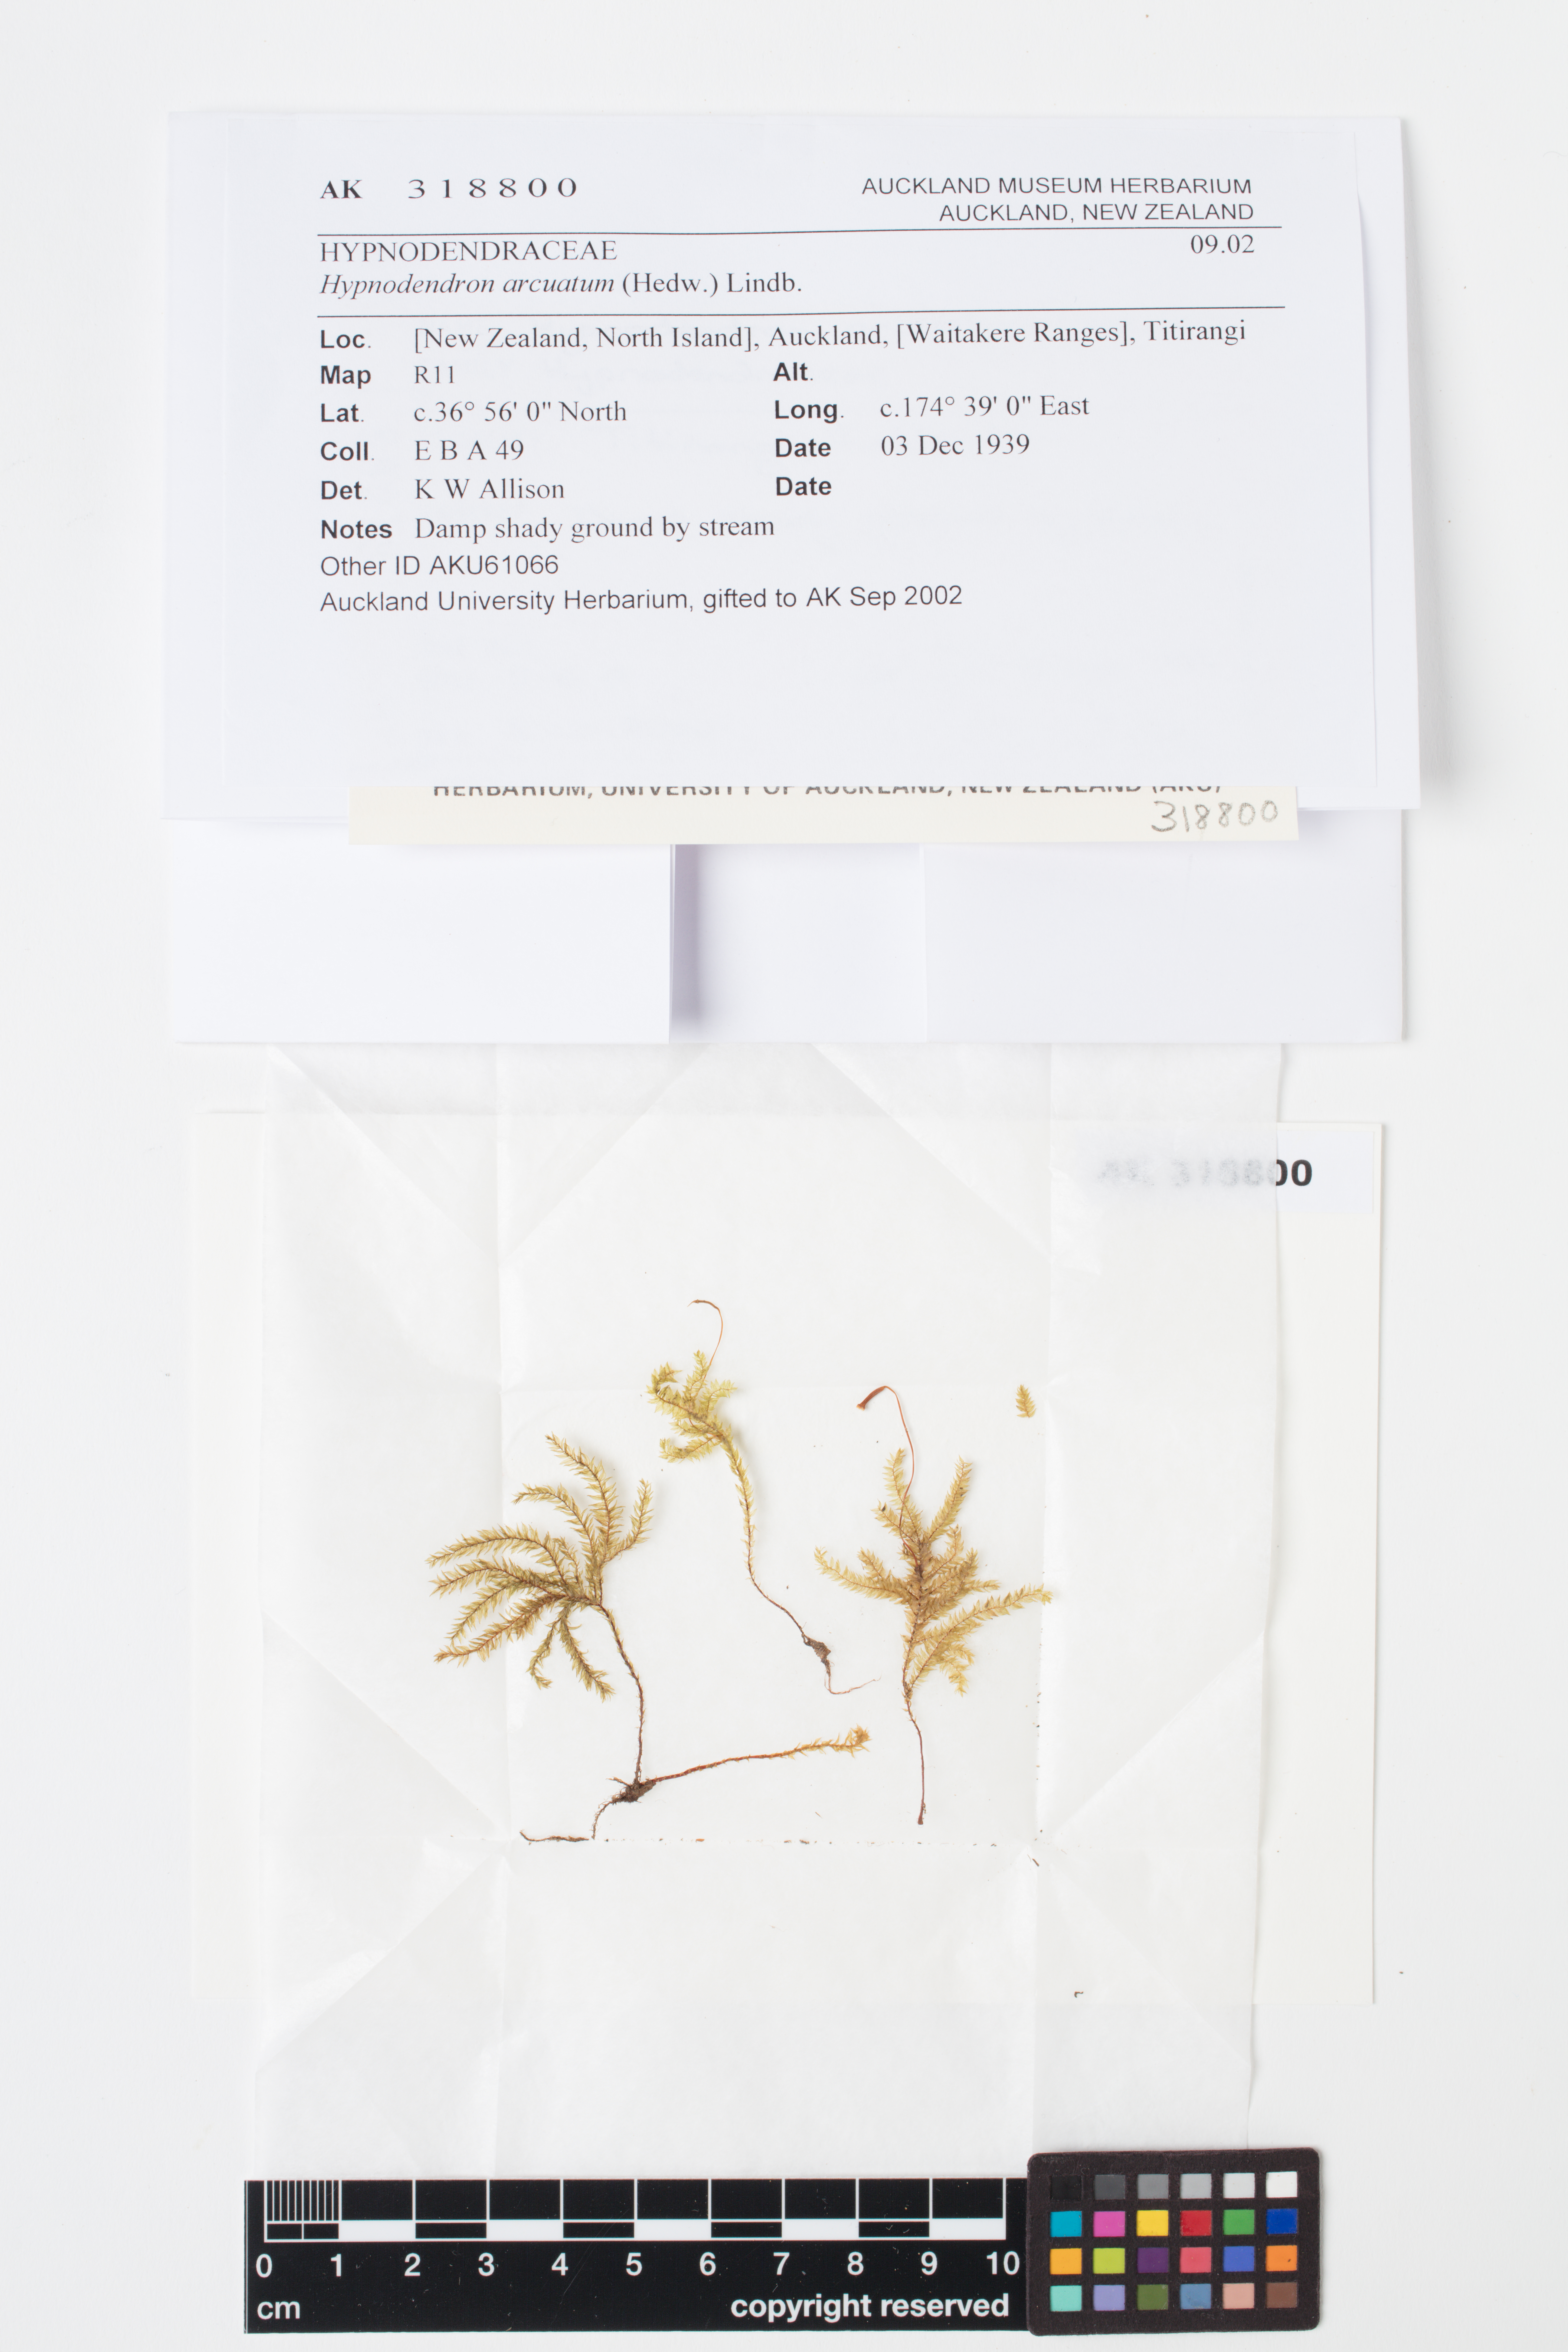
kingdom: Plantae
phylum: Bryophyta
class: Bryopsida
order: Hypnodendrales
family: Spiridentaceae
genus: Hypnodendron
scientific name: Hypnodendron arcuatum
